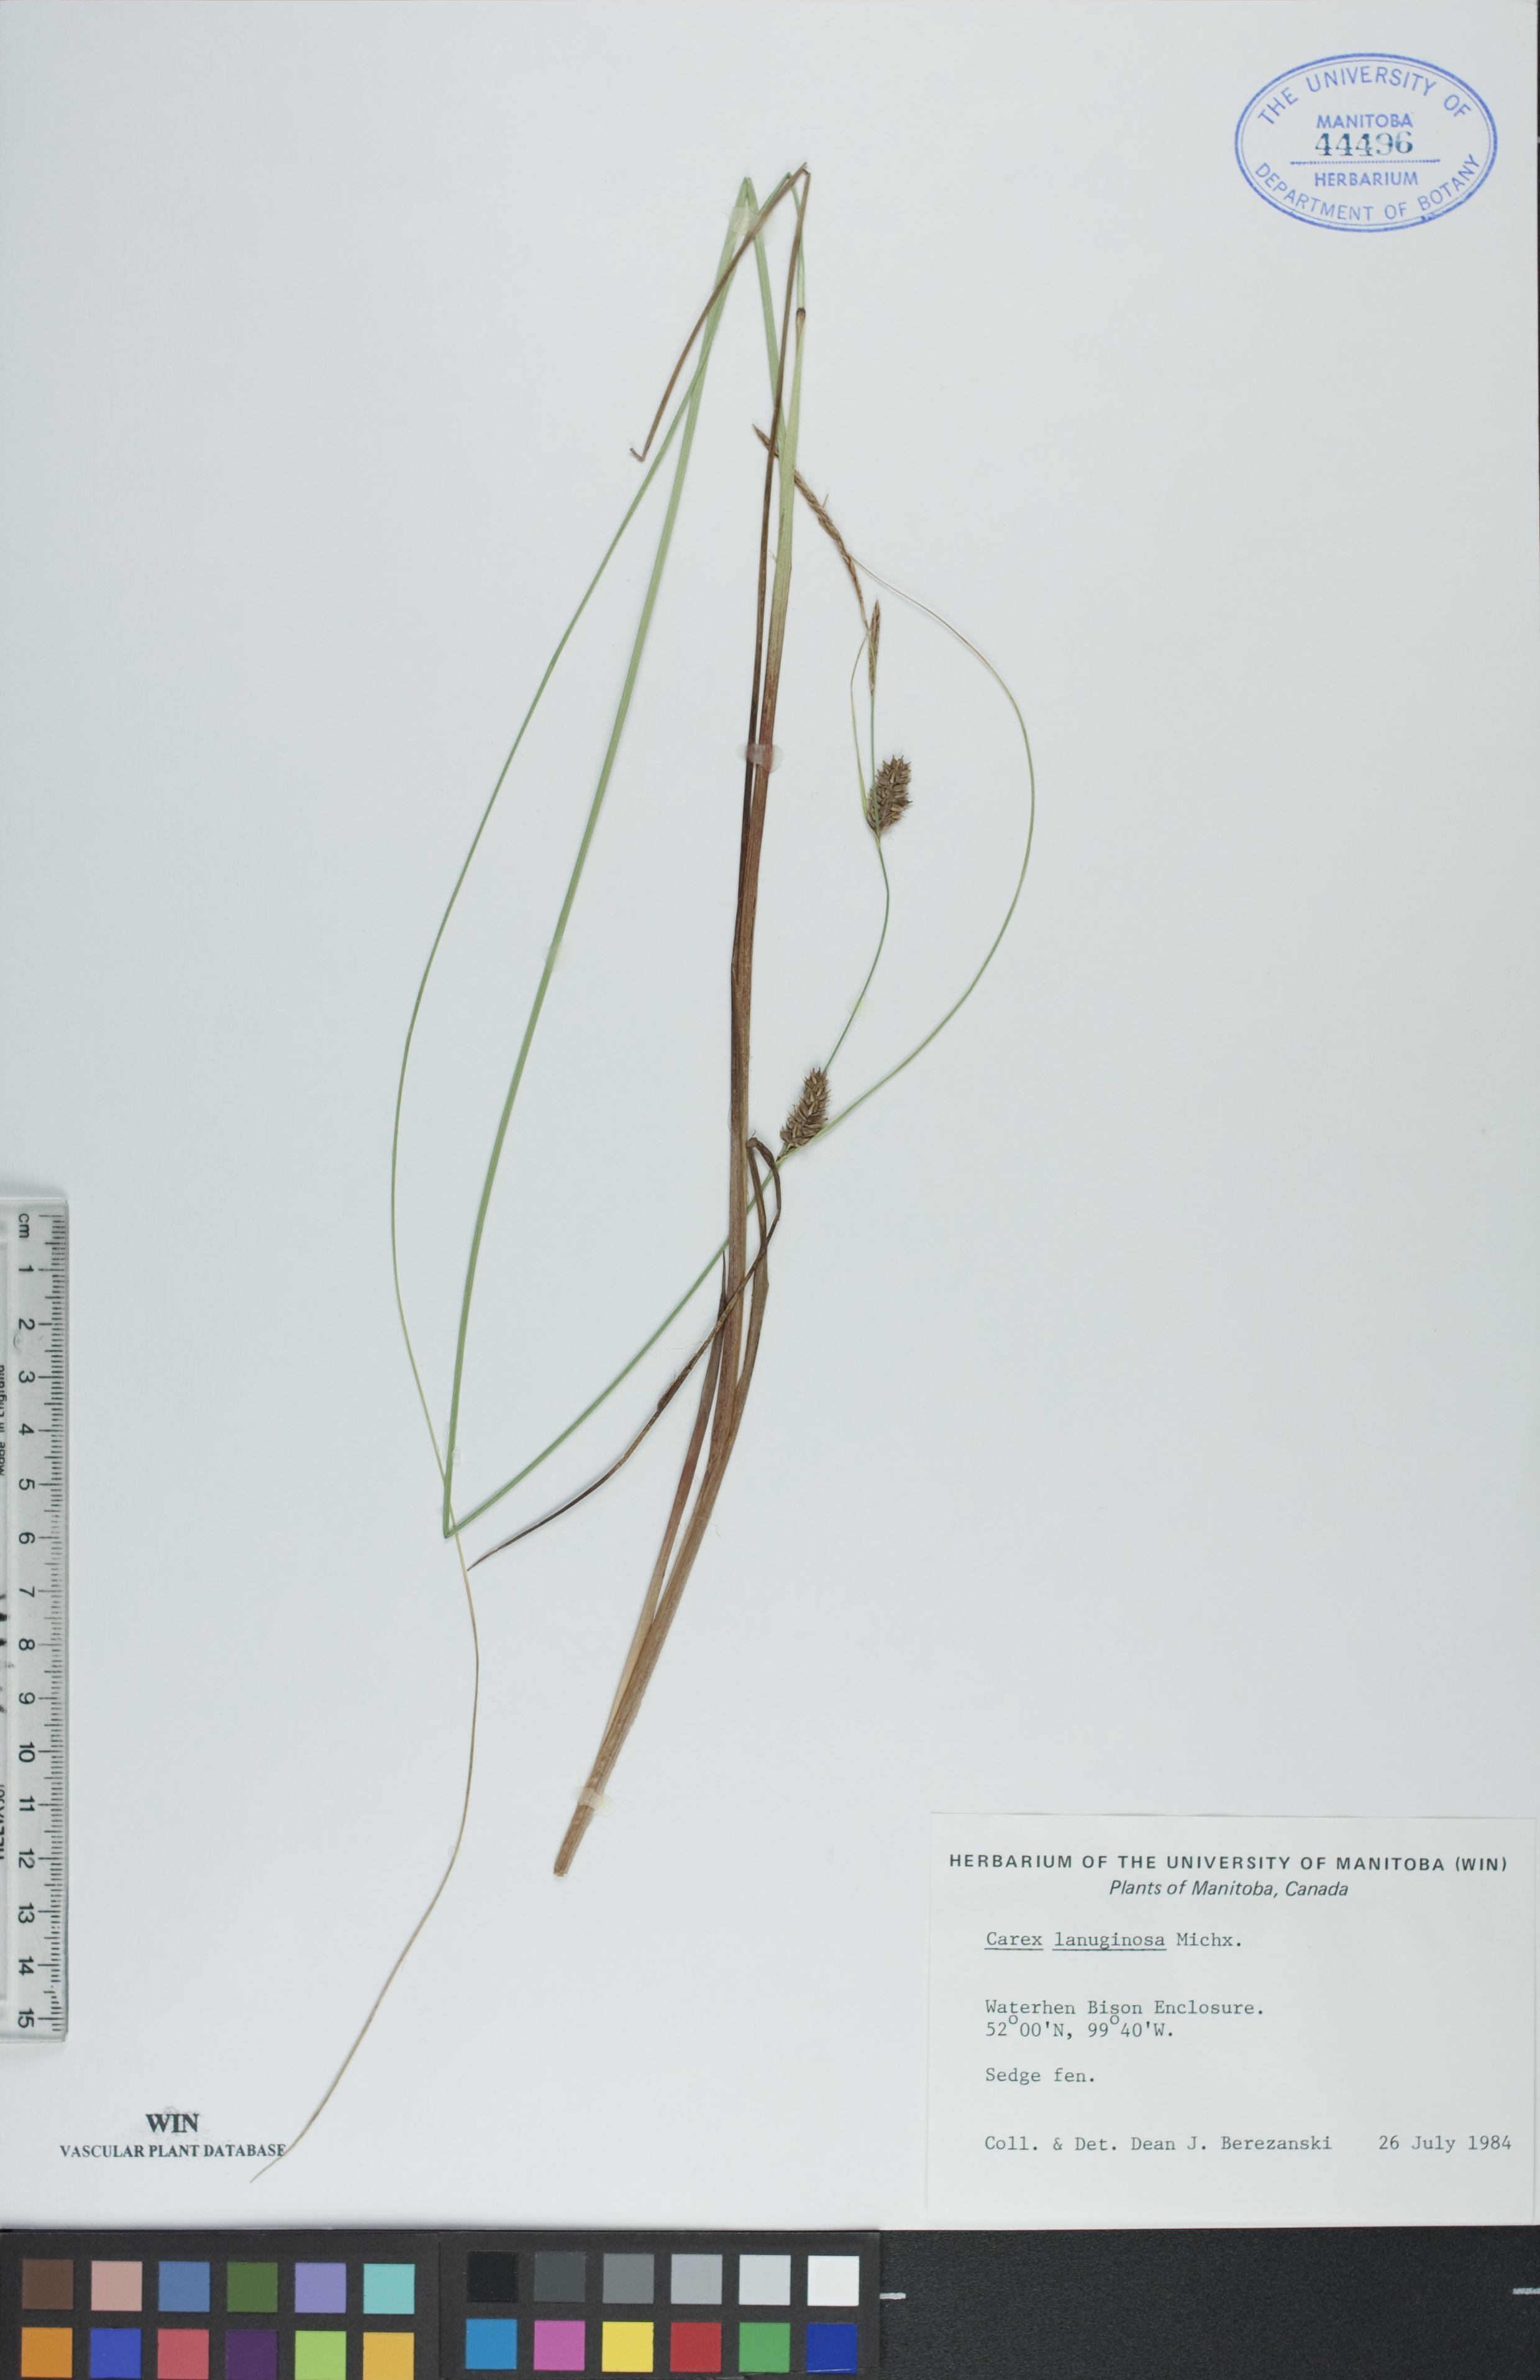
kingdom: Plantae
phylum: Tracheophyta
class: Liliopsida
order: Poales
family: Cyperaceae
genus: Carex
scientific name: Carex lasiocarpa
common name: Slender sedge
